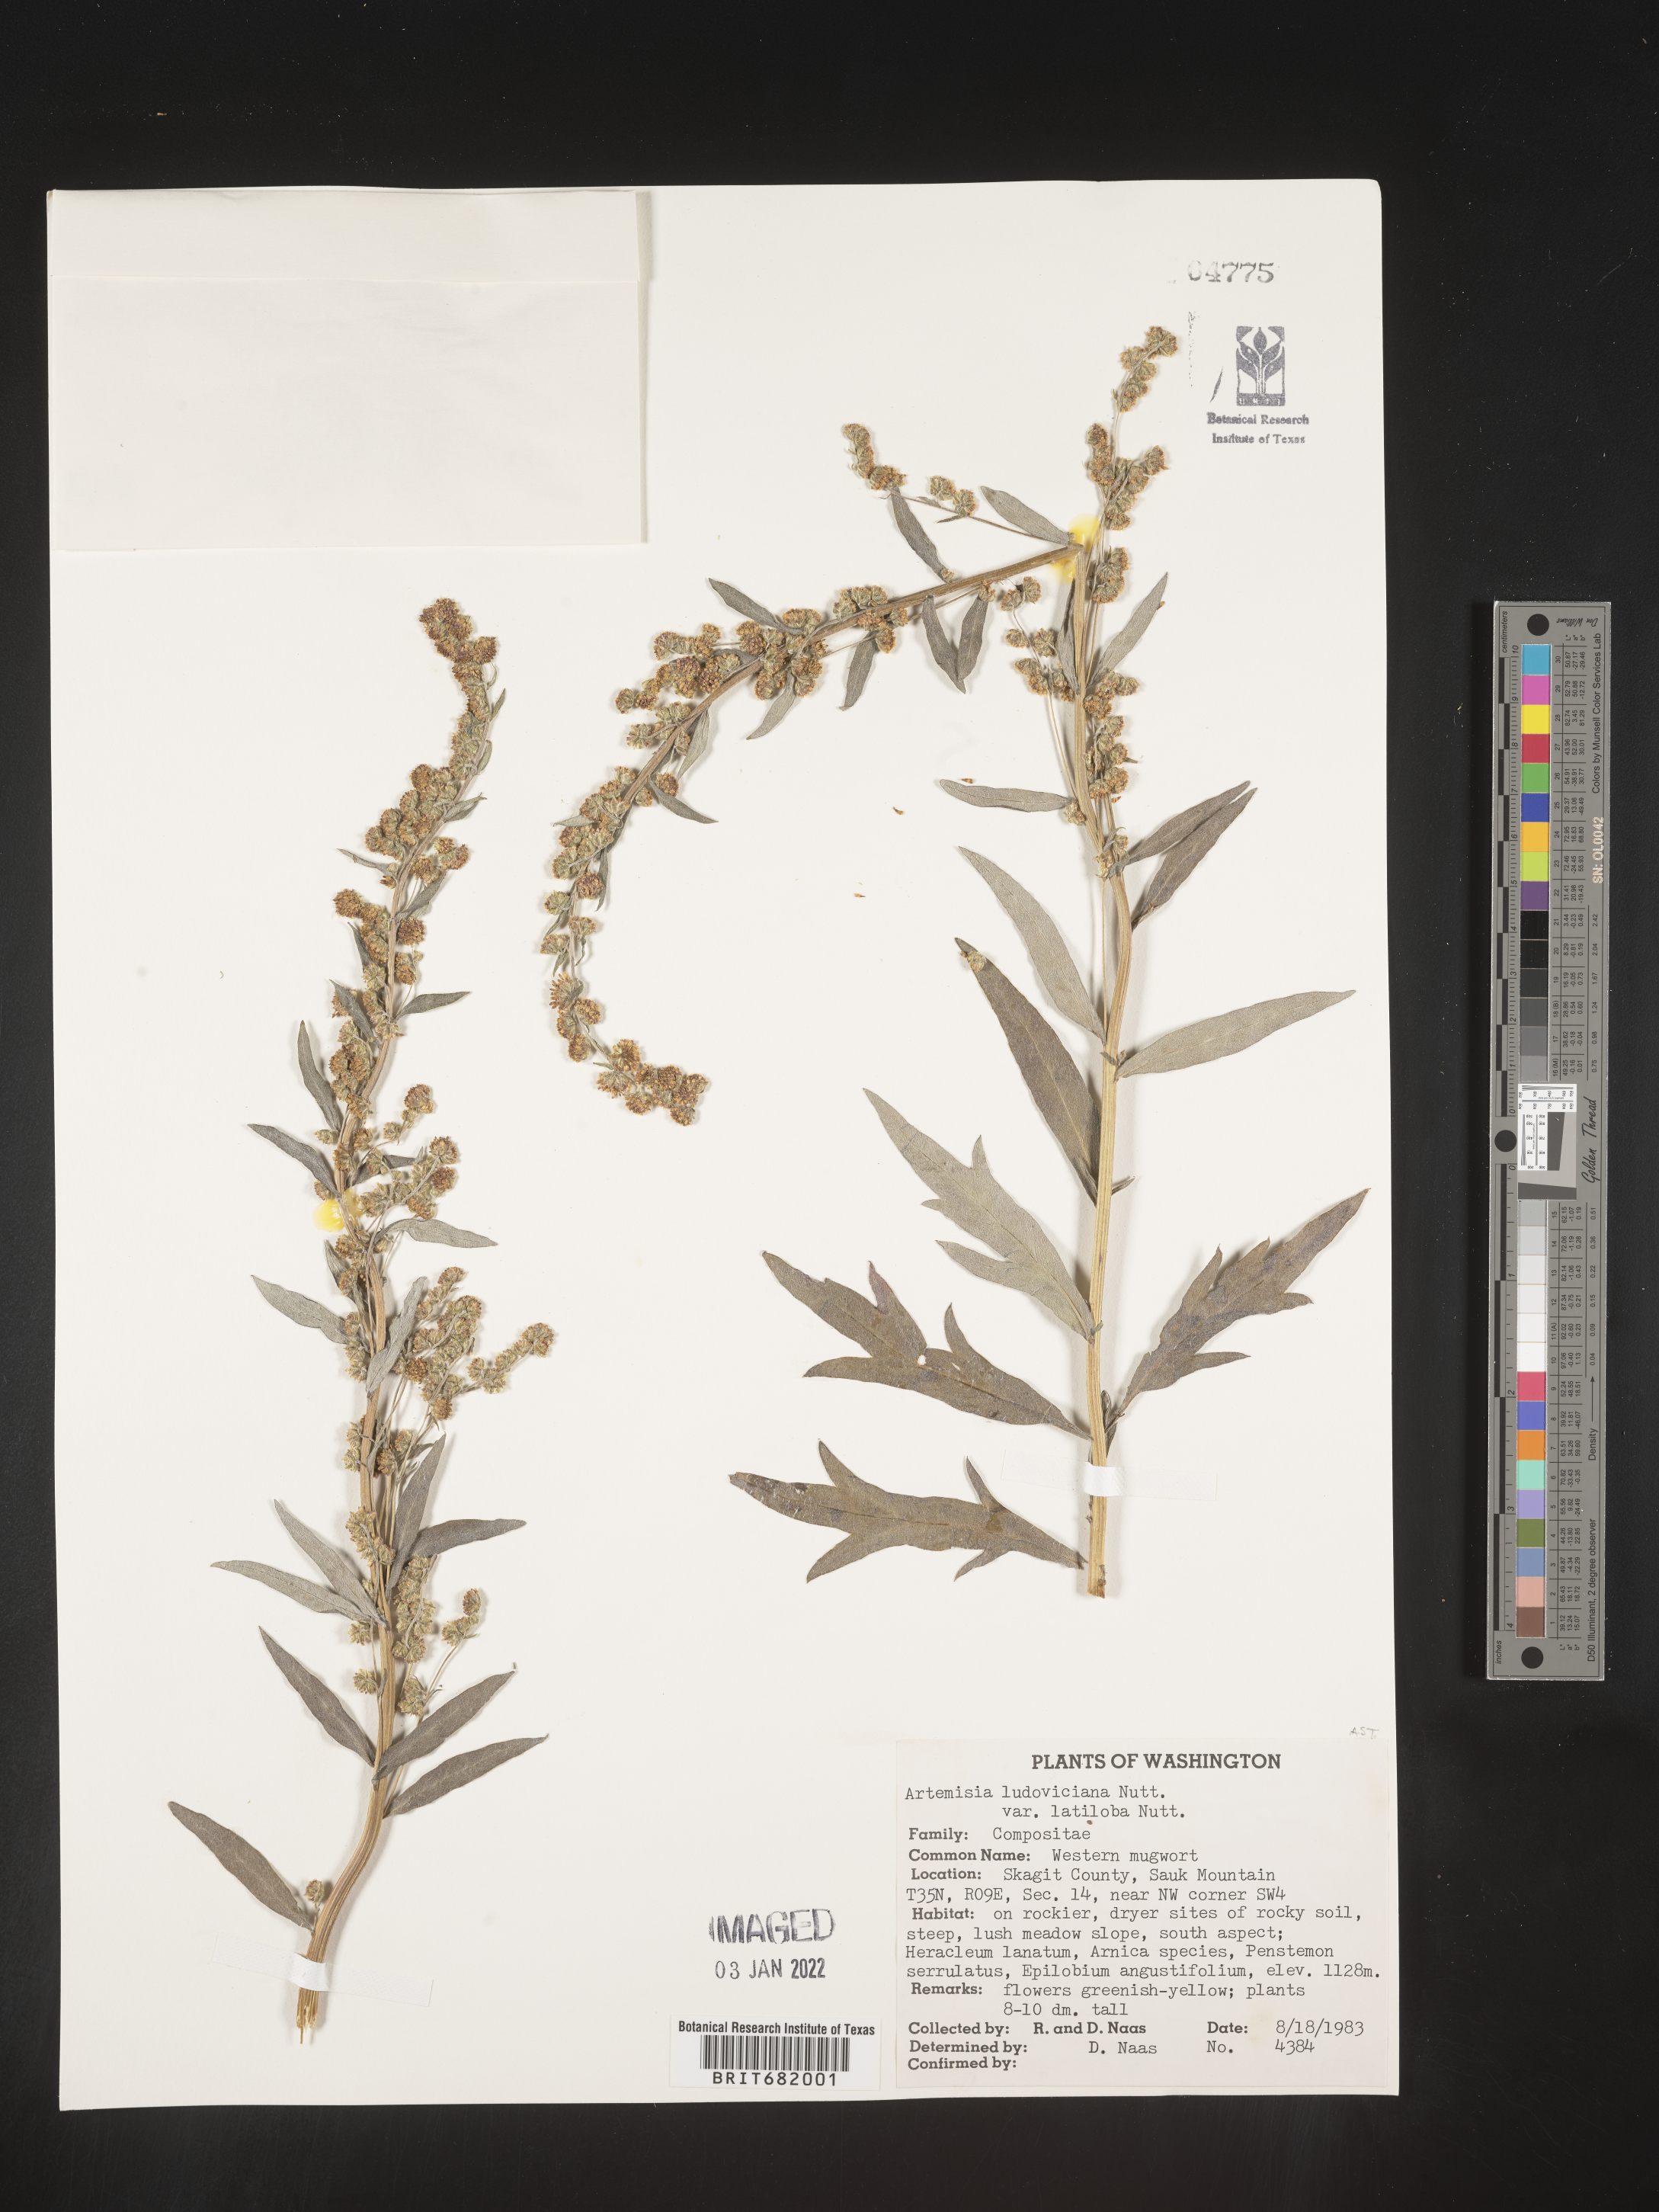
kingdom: Plantae
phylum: Tracheophyta
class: Magnoliopsida
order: Asterales
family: Asteraceae
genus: Artemisia
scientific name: Artemisia ludoviciana
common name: Western mugwort
